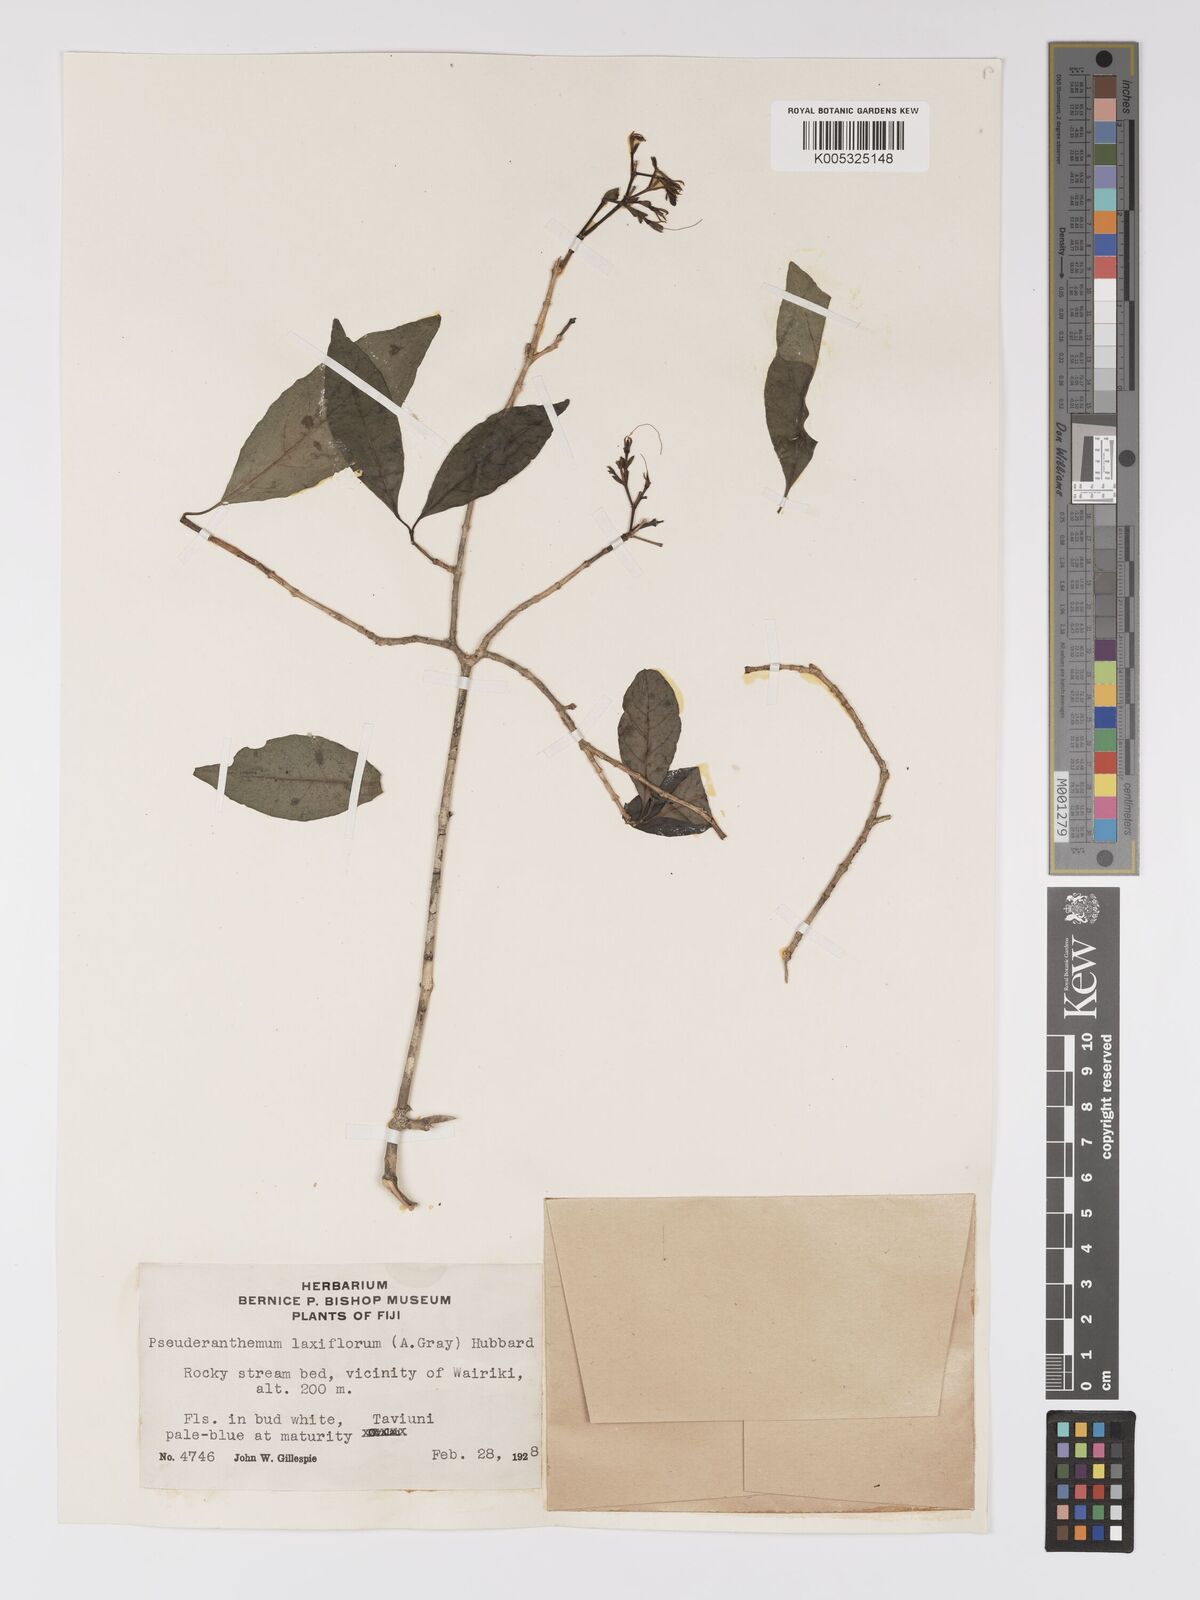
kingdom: Plantae
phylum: Tracheophyta
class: Magnoliopsida
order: Lamiales
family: Acanthaceae
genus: Pseuderanthemum
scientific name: Pseuderanthemum laxiflorum
